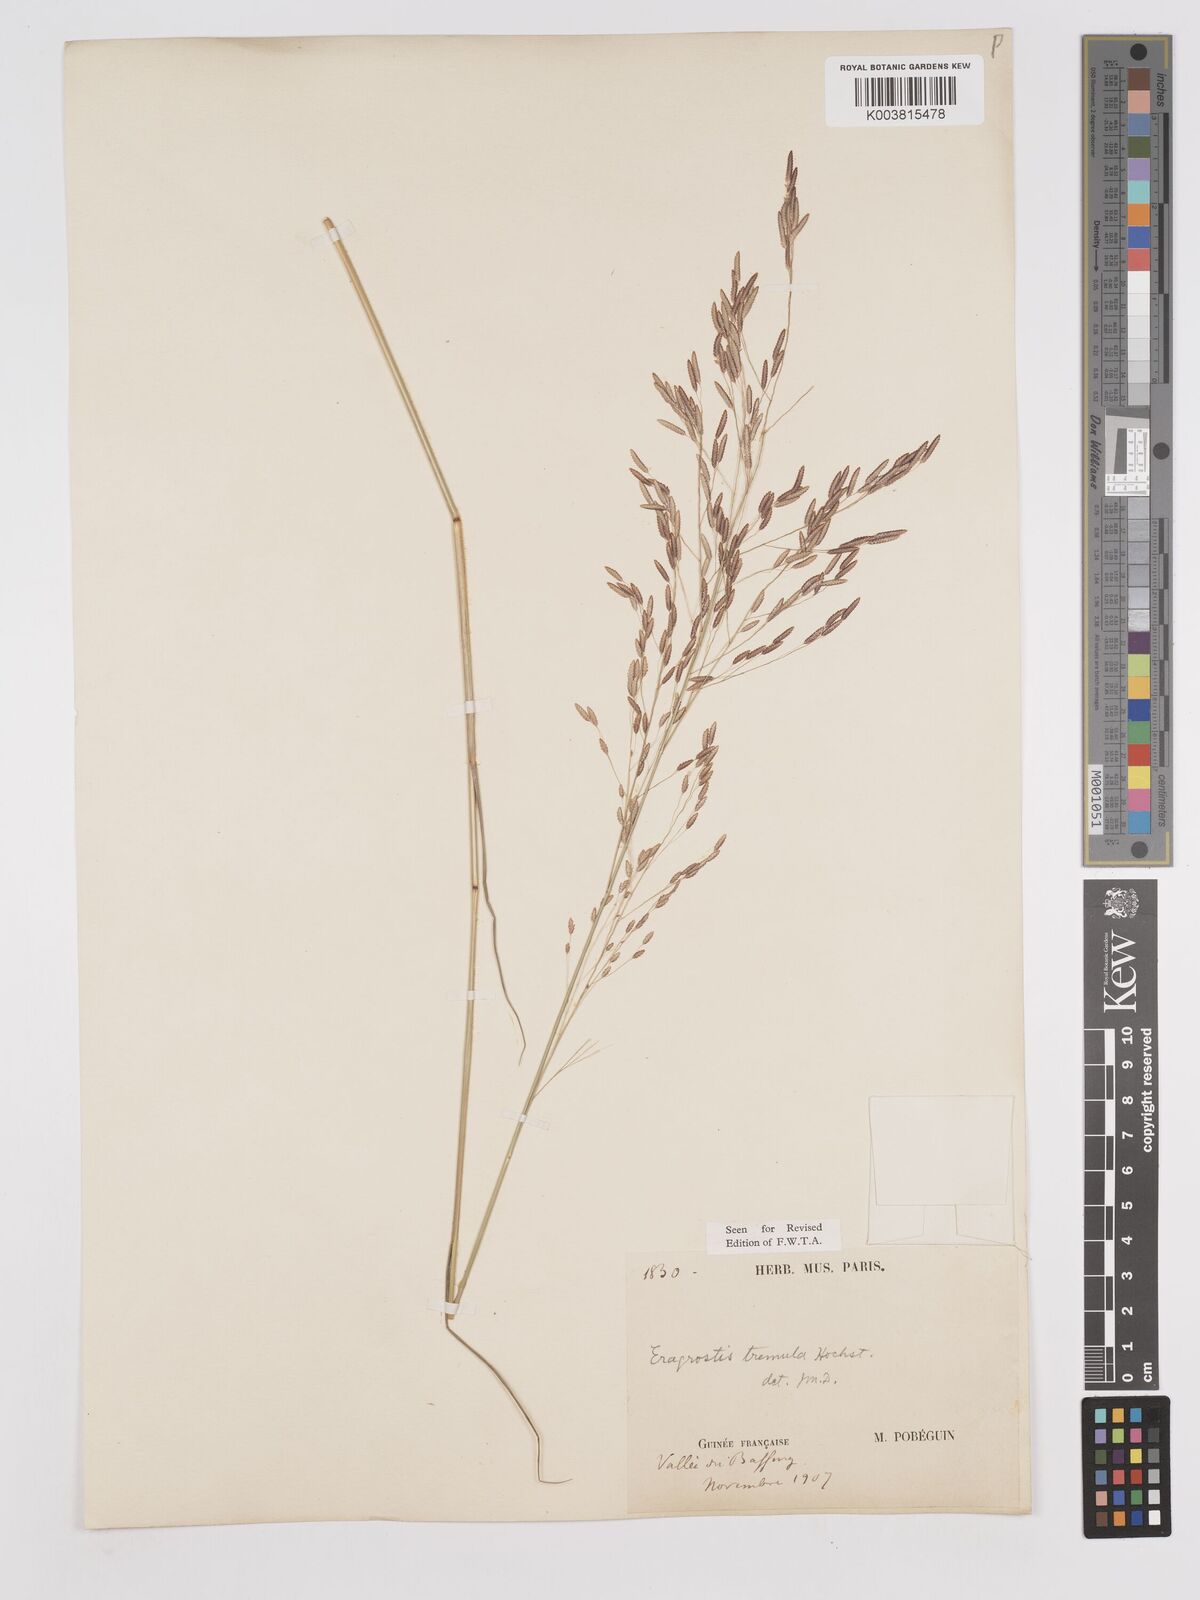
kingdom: Plantae
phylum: Tracheophyta
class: Liliopsida
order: Poales
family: Poaceae
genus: Eragrostis
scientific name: Eragrostis tremula
